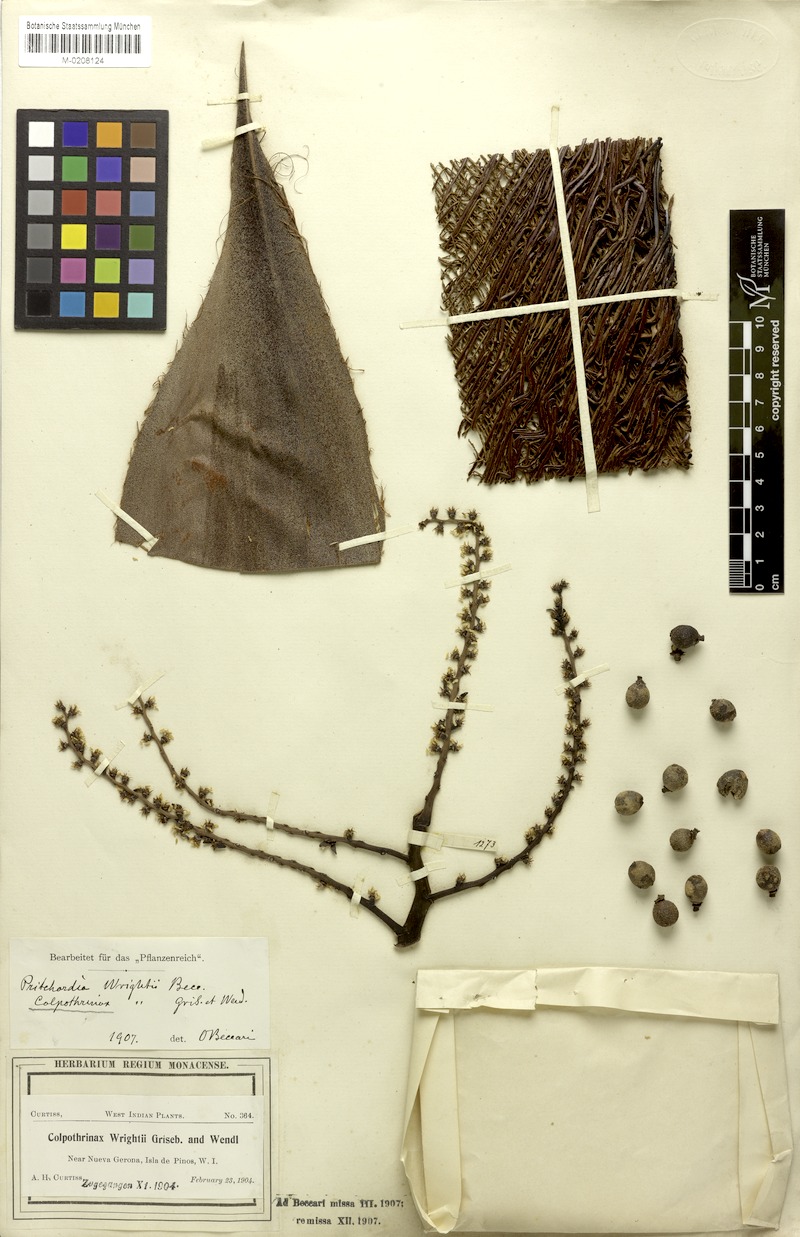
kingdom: Plantae
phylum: Tracheophyta
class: Liliopsida
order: Arecales
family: Arecaceae
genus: Colpothrinax
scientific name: Colpothrinax wrightii
